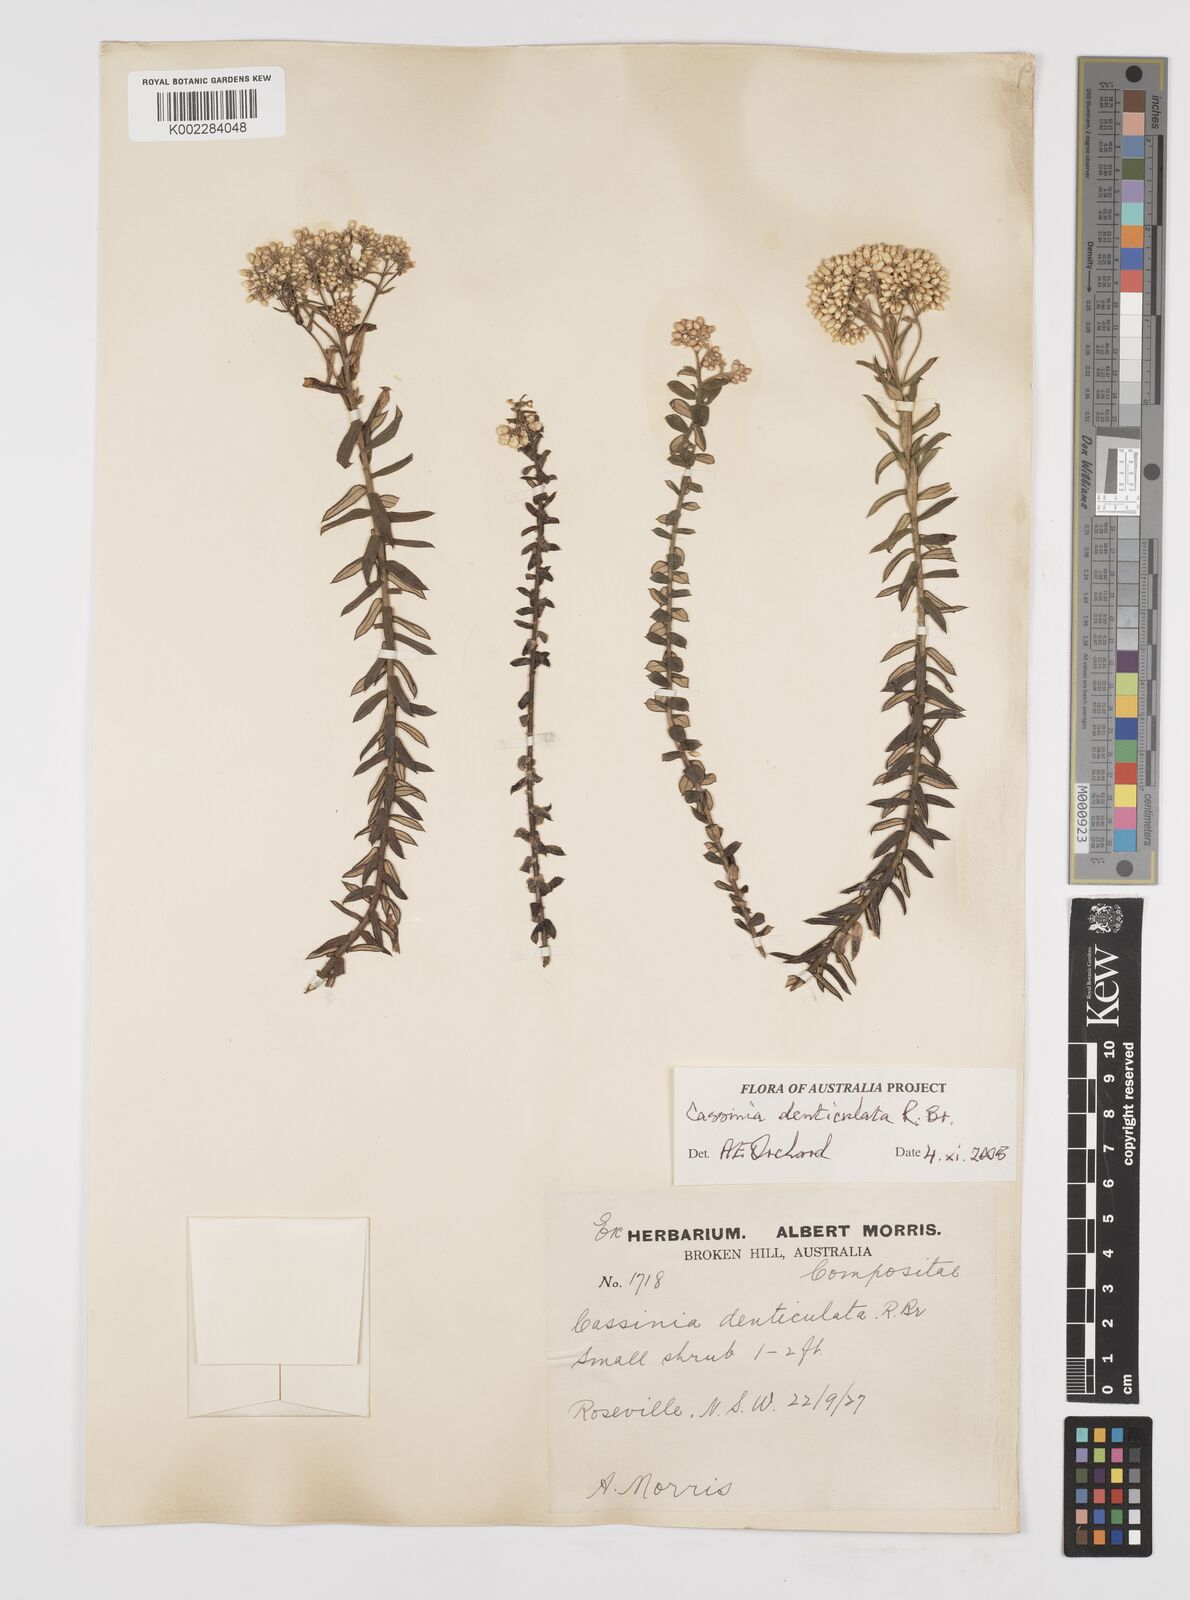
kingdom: Plantae
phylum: Tracheophyta
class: Magnoliopsida
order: Asterales
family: Asteraceae
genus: Cassinia
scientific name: Cassinia denticulata
